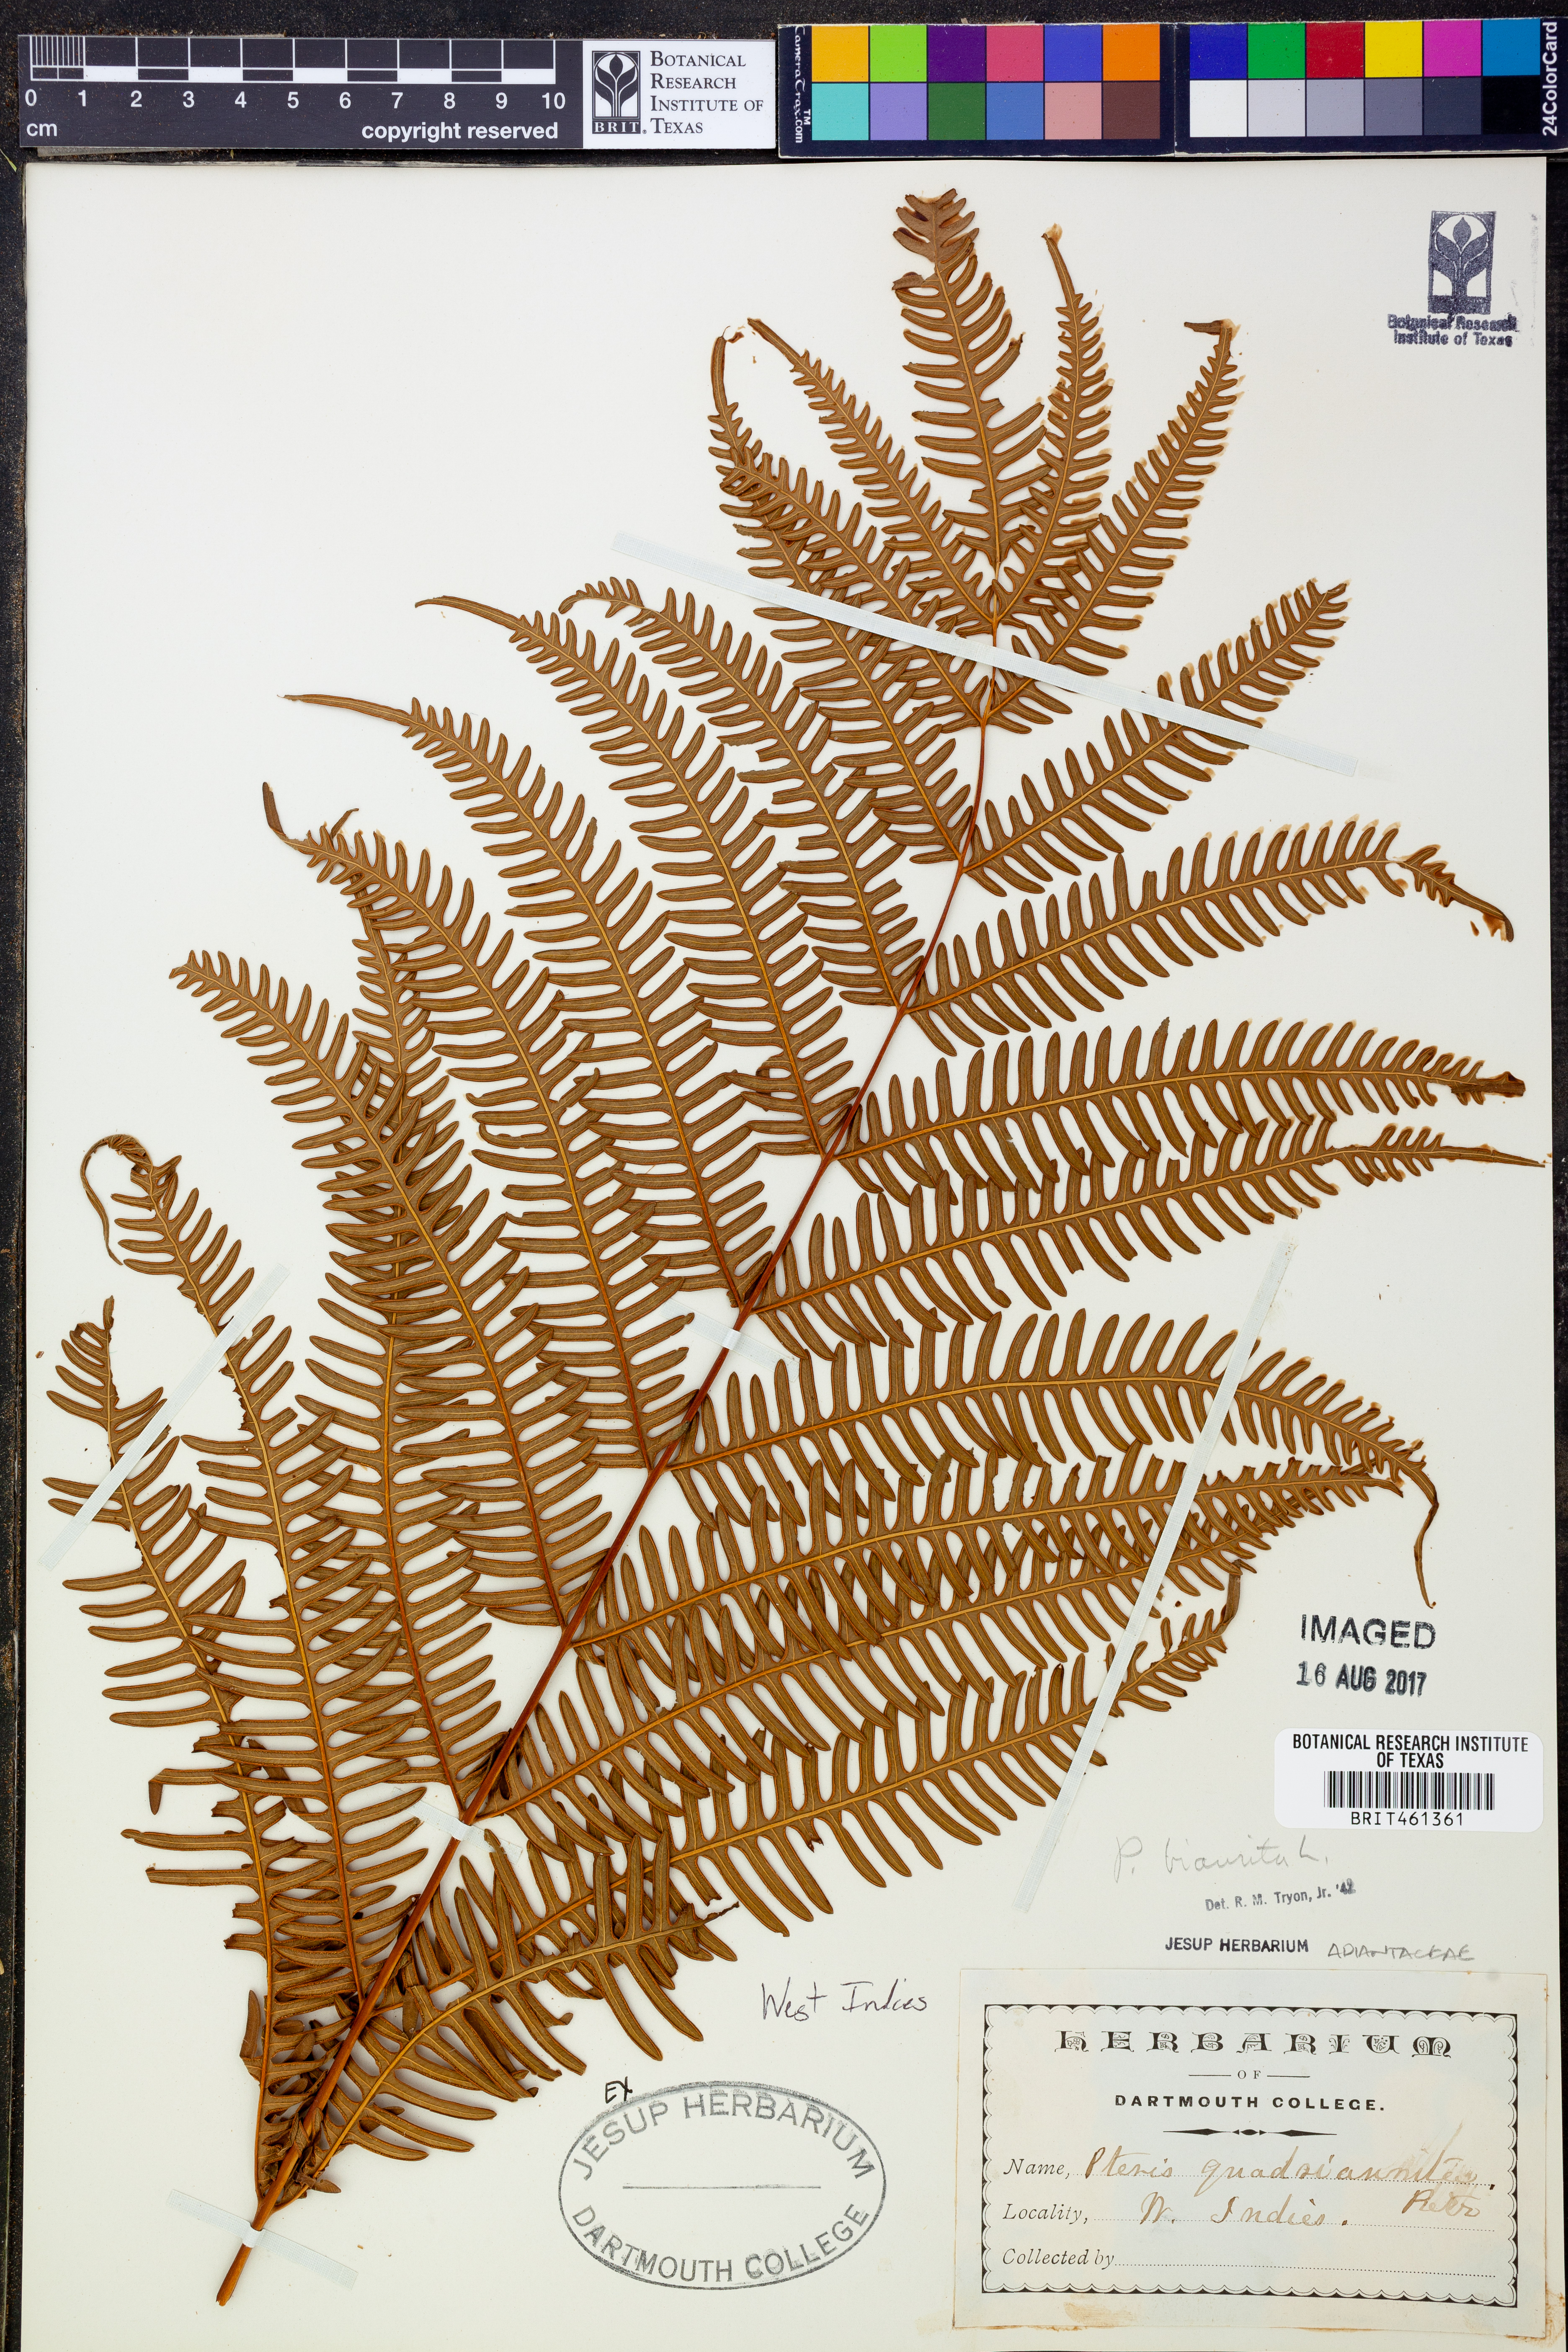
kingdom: Plantae
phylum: Tracheophyta
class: Polypodiopsida
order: Polypodiales
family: Pteridaceae
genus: Pteris
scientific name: Pteris biaurita
